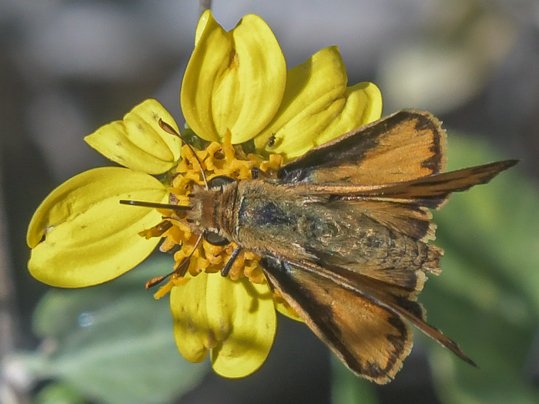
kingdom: Animalia
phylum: Arthropoda
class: Insecta
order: Lepidoptera
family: Hesperiidae
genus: Hylephila
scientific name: Hylephila phyleus
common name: Fiery Skipper
